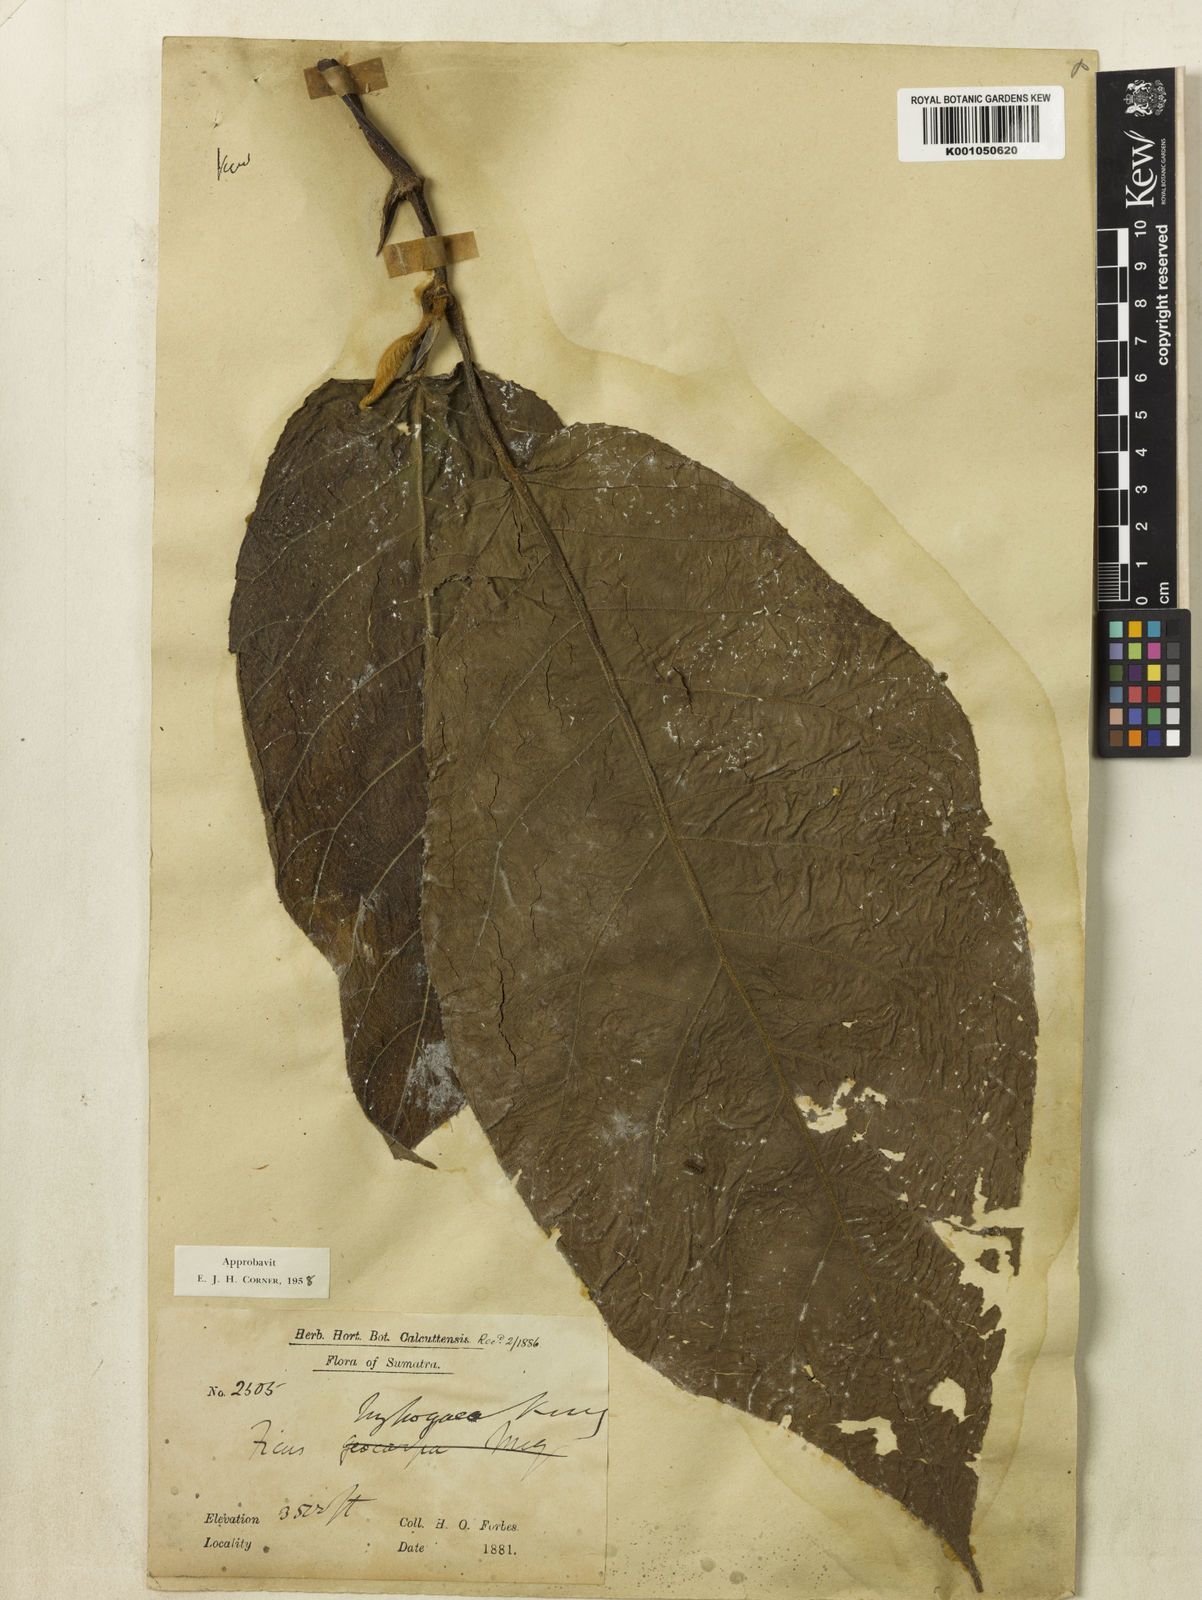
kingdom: Plantae
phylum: Tracheophyta
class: Magnoliopsida
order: Rosales
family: Moraceae
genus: Ficus
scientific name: Ficus gilapong
